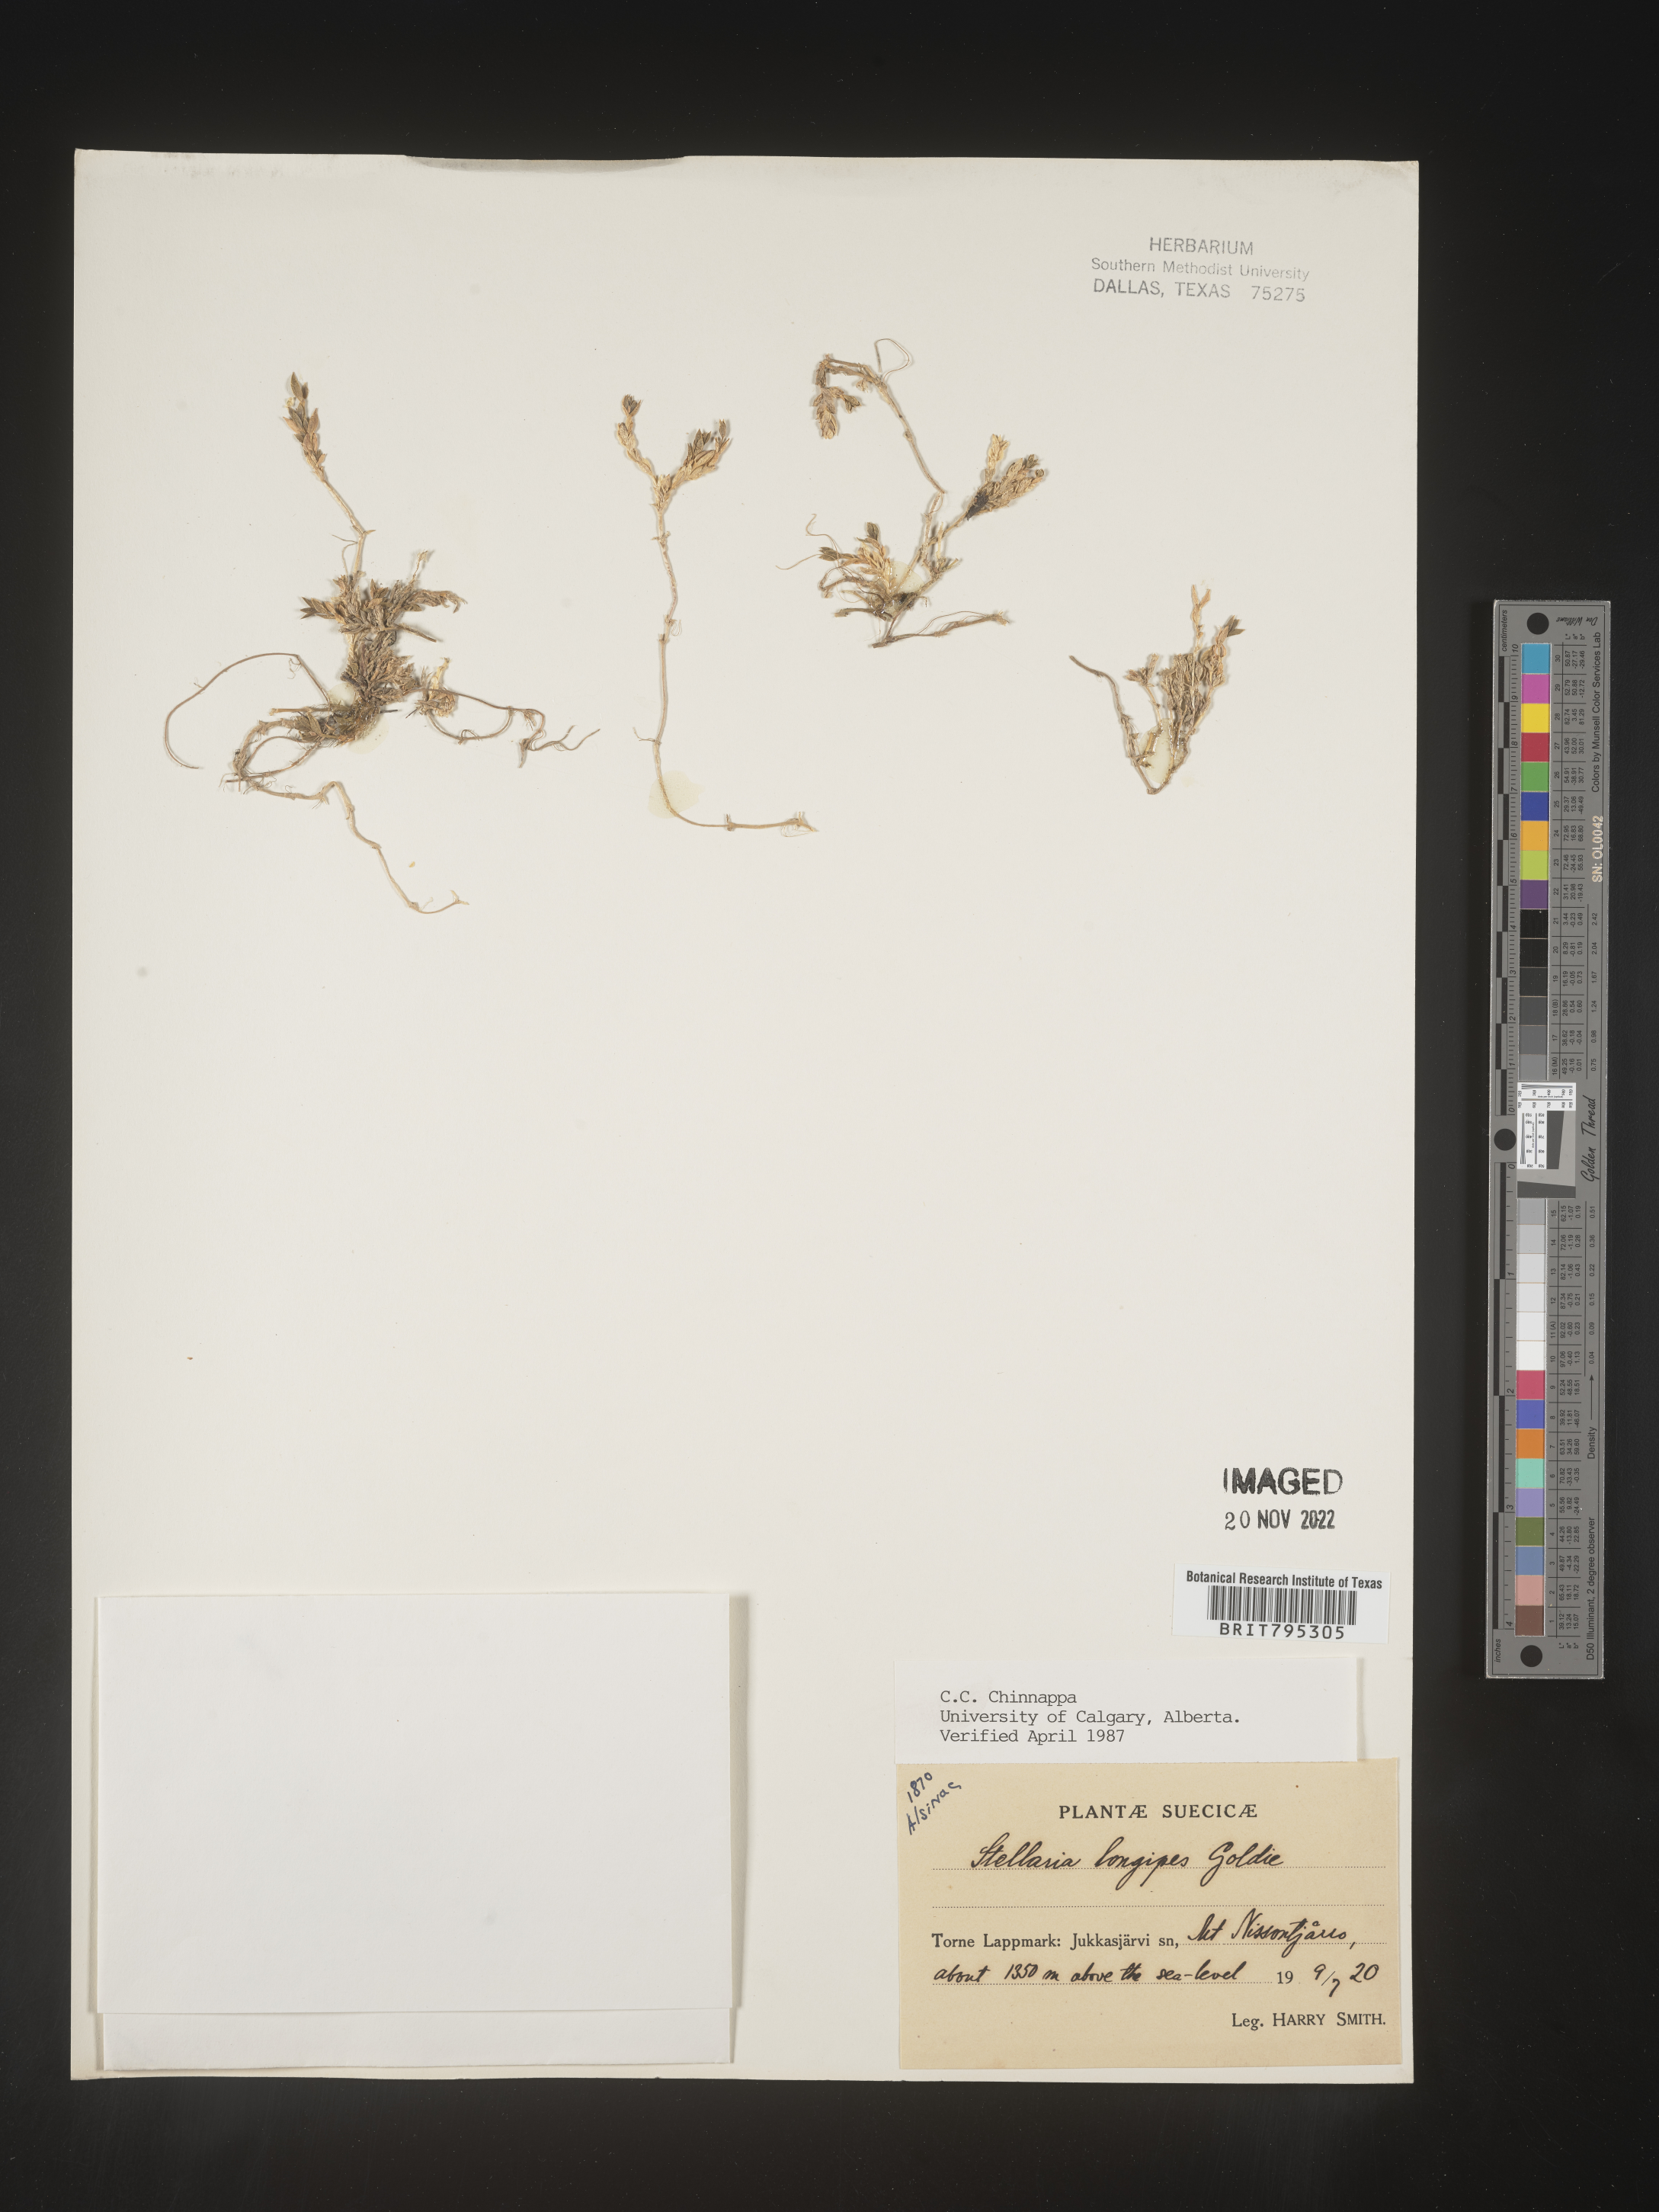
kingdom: Plantae
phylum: Tracheophyta
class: Magnoliopsida
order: Caryophyllales
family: Caryophyllaceae
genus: Stellaria
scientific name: Stellaria
